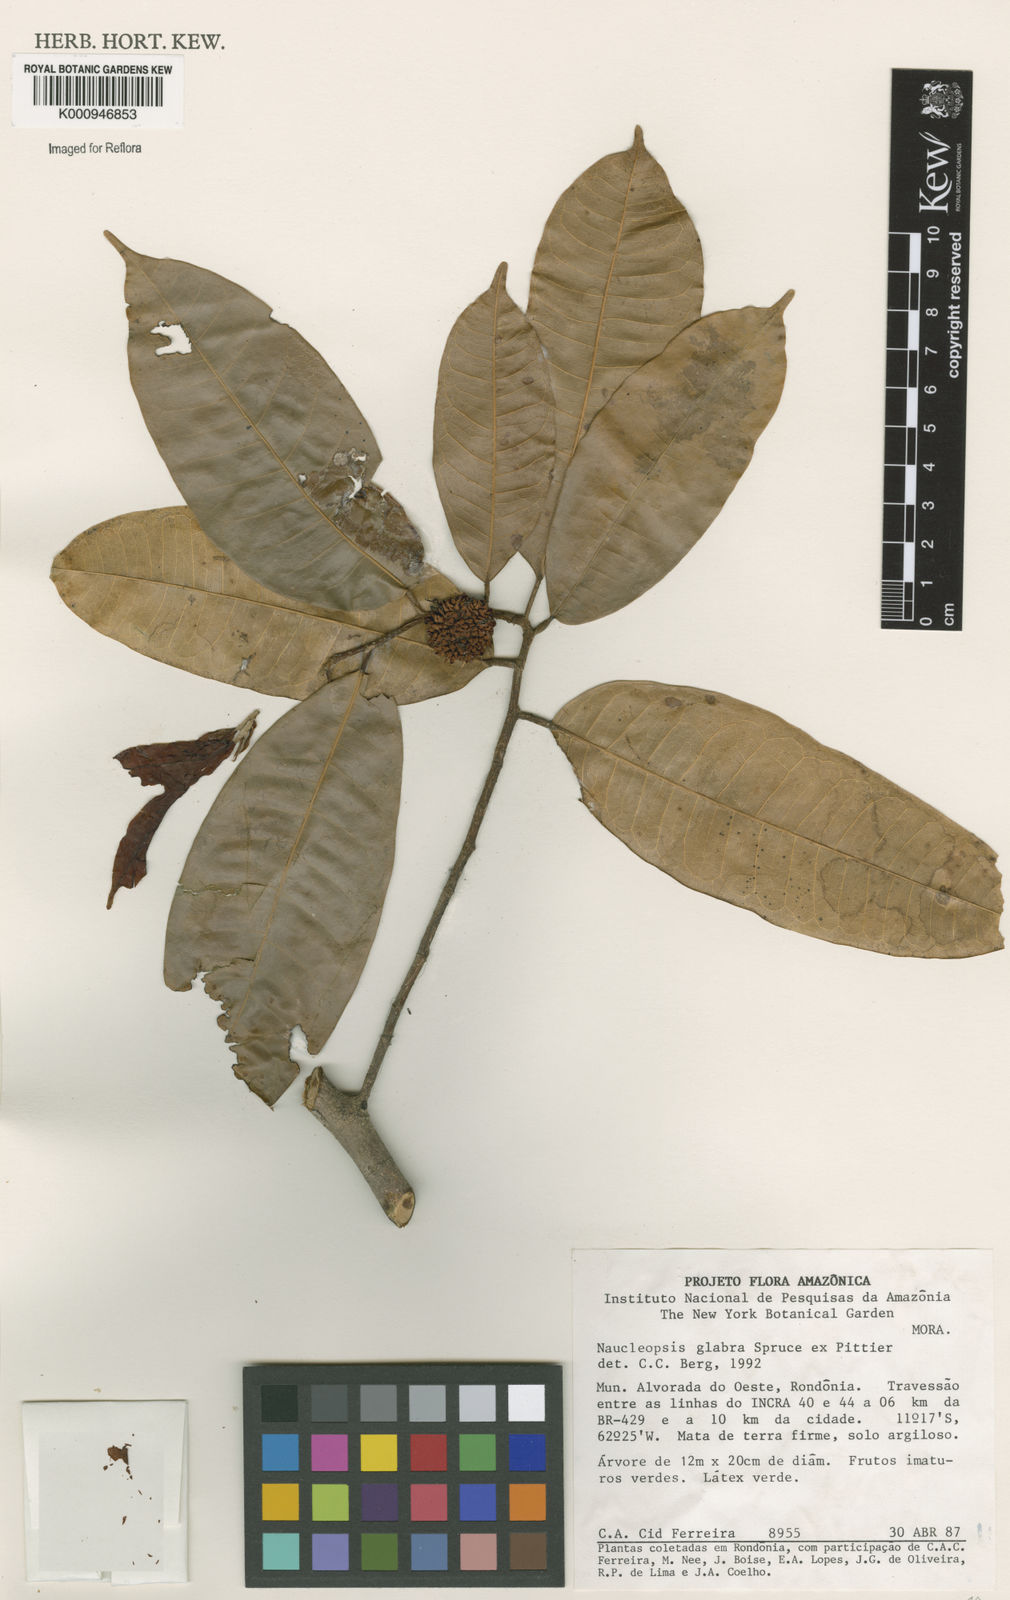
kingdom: Plantae
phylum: Tracheophyta
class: Magnoliopsida
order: Rosales
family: Moraceae
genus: Naucleopsis
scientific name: Naucleopsis glabra
